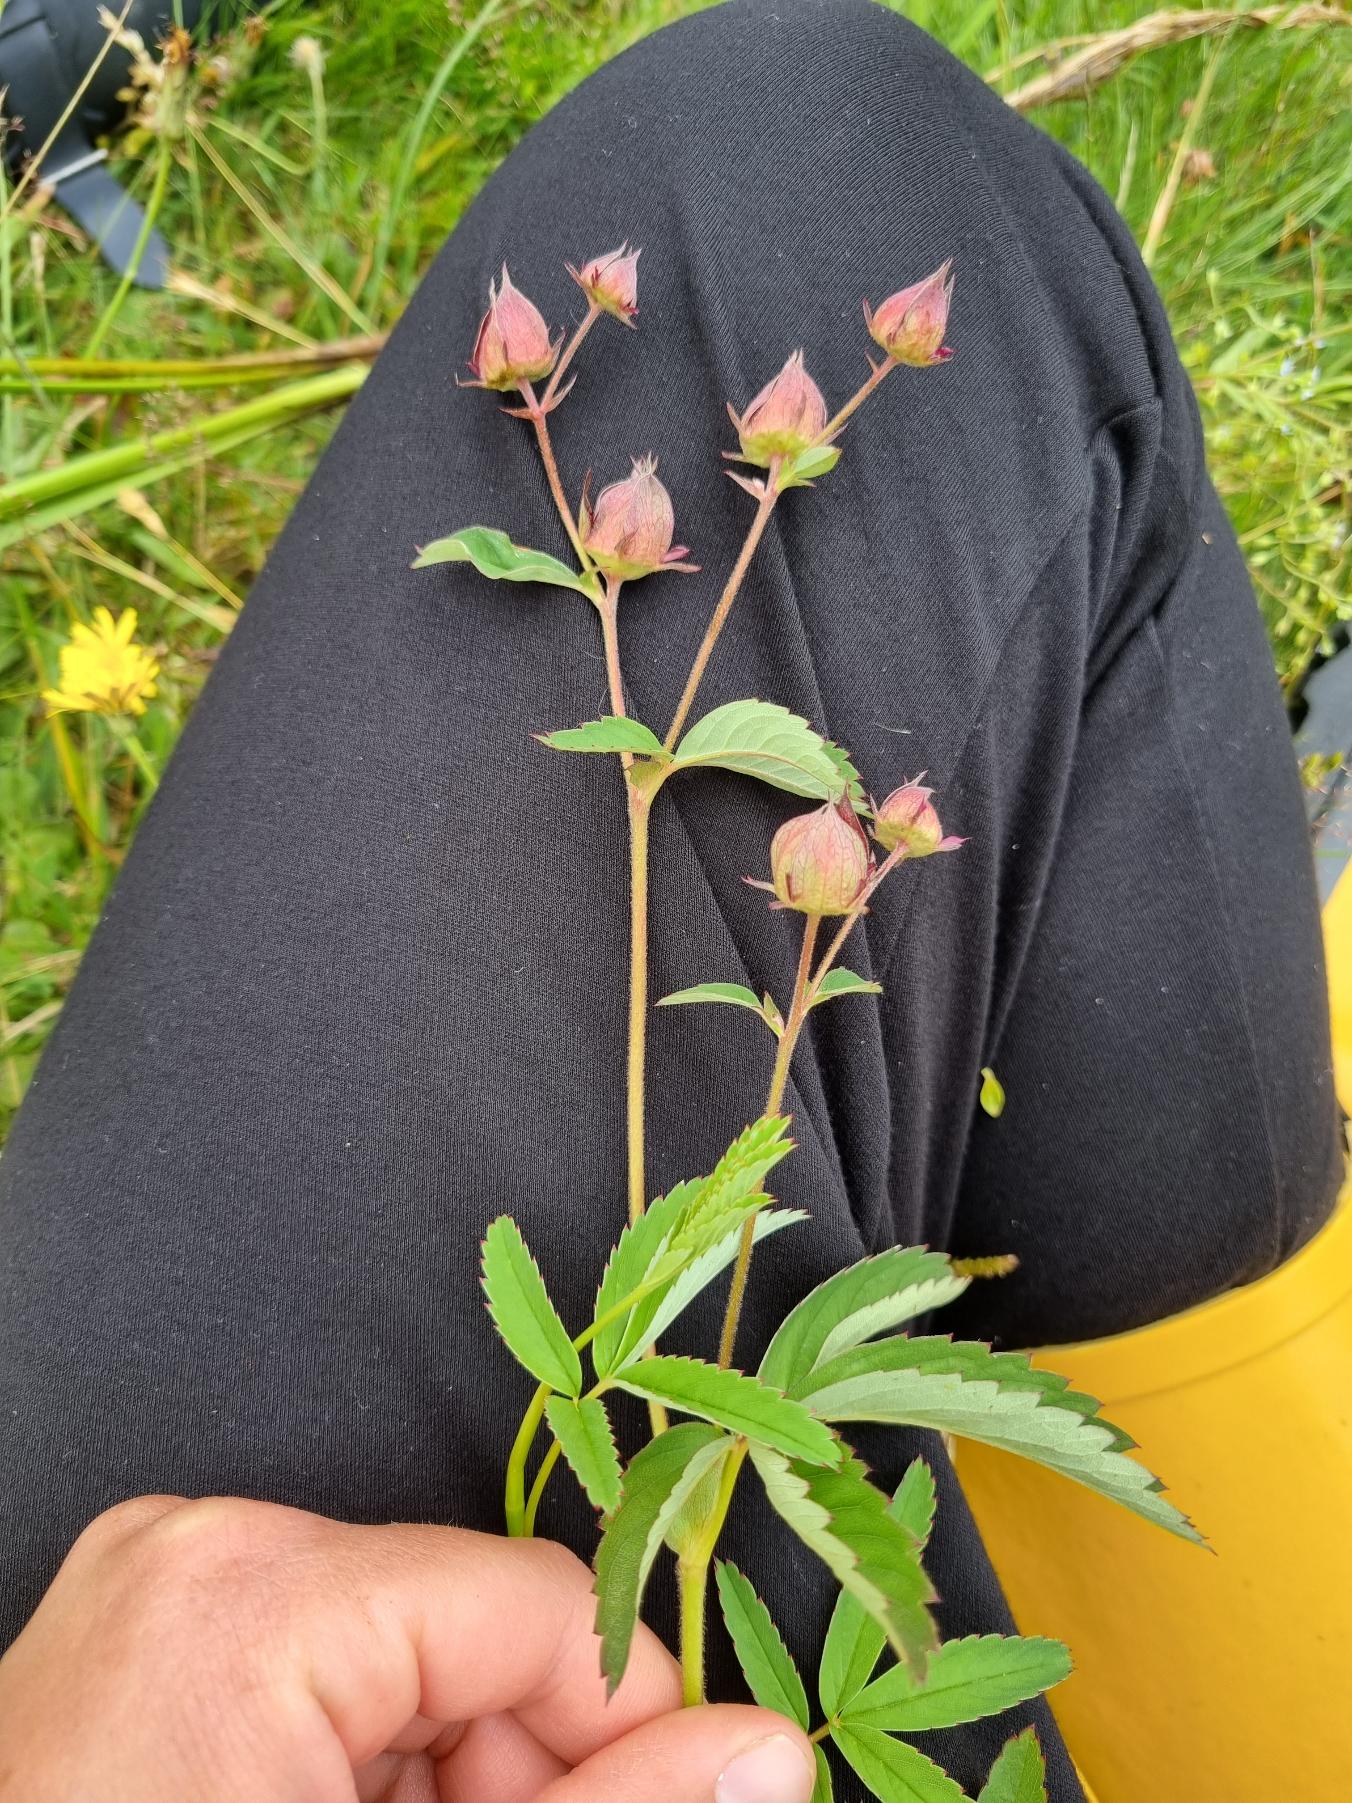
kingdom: Plantae
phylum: Tracheophyta
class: Magnoliopsida
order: Rosales
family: Rosaceae
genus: Comarum
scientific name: Comarum palustre
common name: Kragefod
